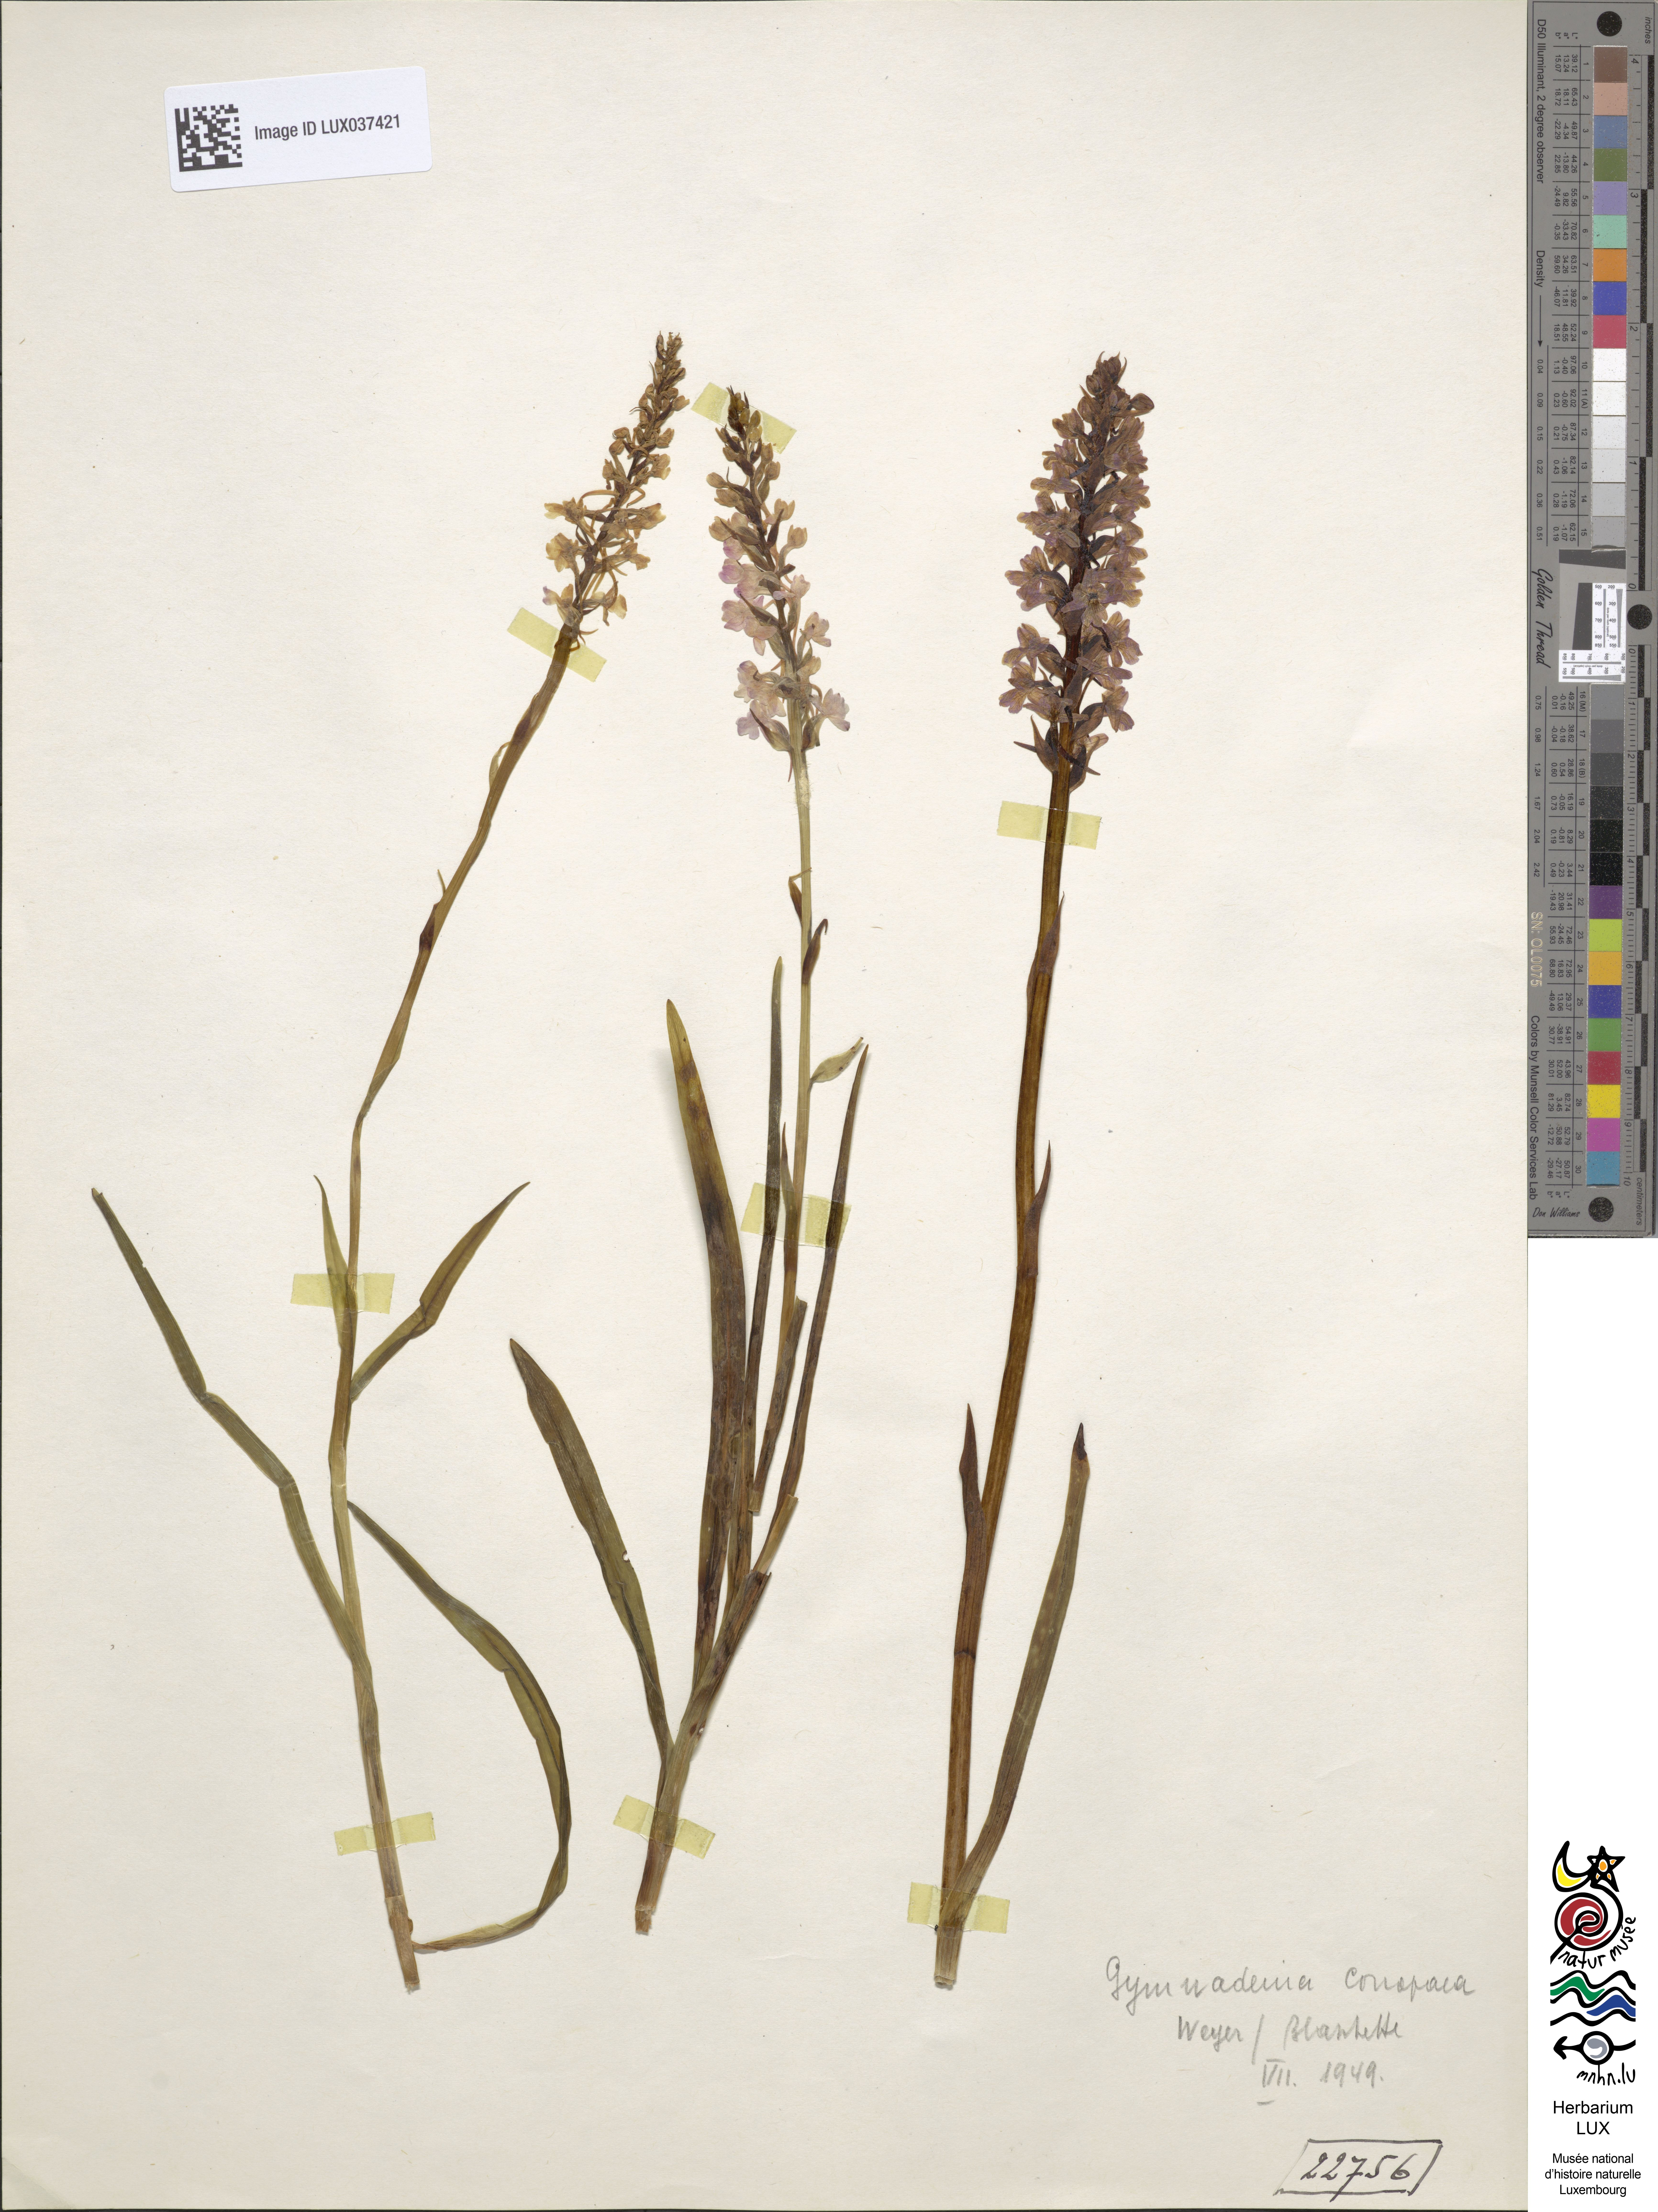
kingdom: Plantae
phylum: Tracheophyta
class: Liliopsida
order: Asparagales
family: Orchidaceae
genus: Gymnadenia
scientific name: Gymnadenia conopsea
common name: Fragrant orchid
